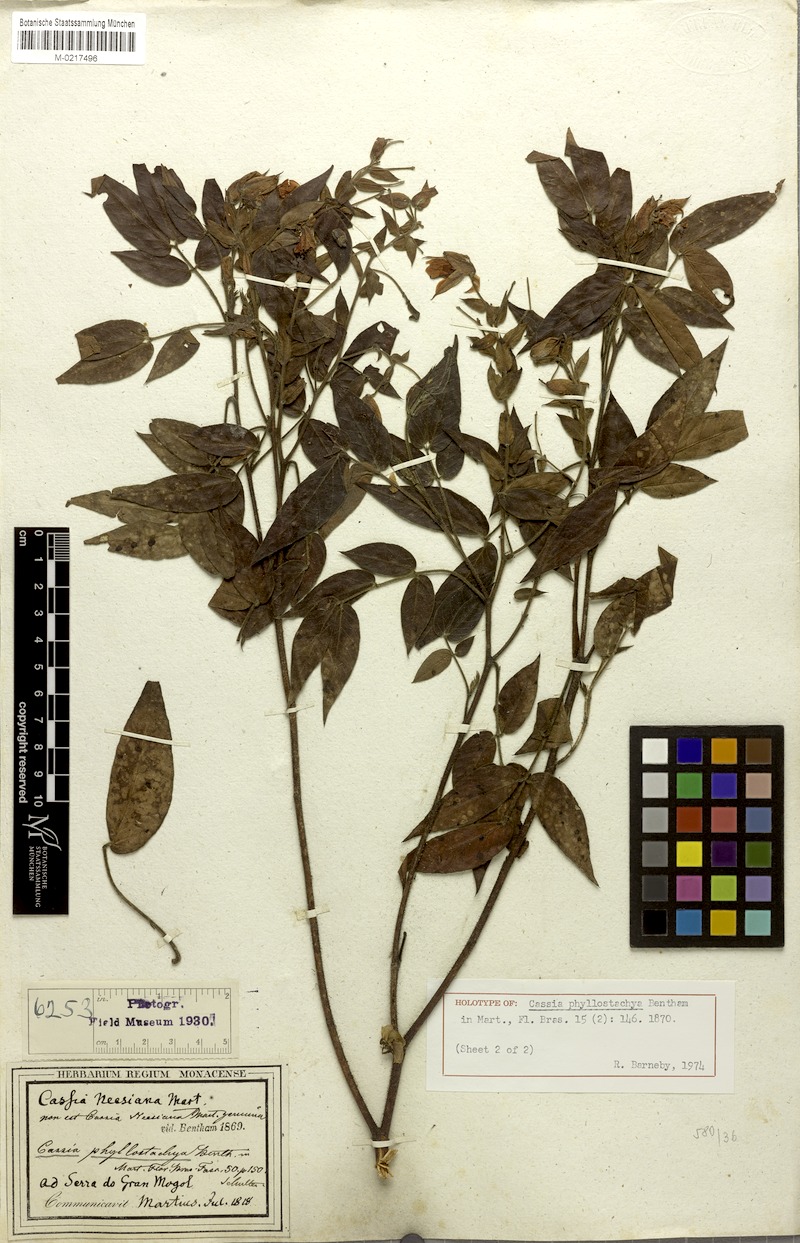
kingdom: Plantae
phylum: Tracheophyta
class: Magnoliopsida
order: Fabales
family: Fabaceae
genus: Chamaecrista
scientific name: Chamaecrista phyllostachya
